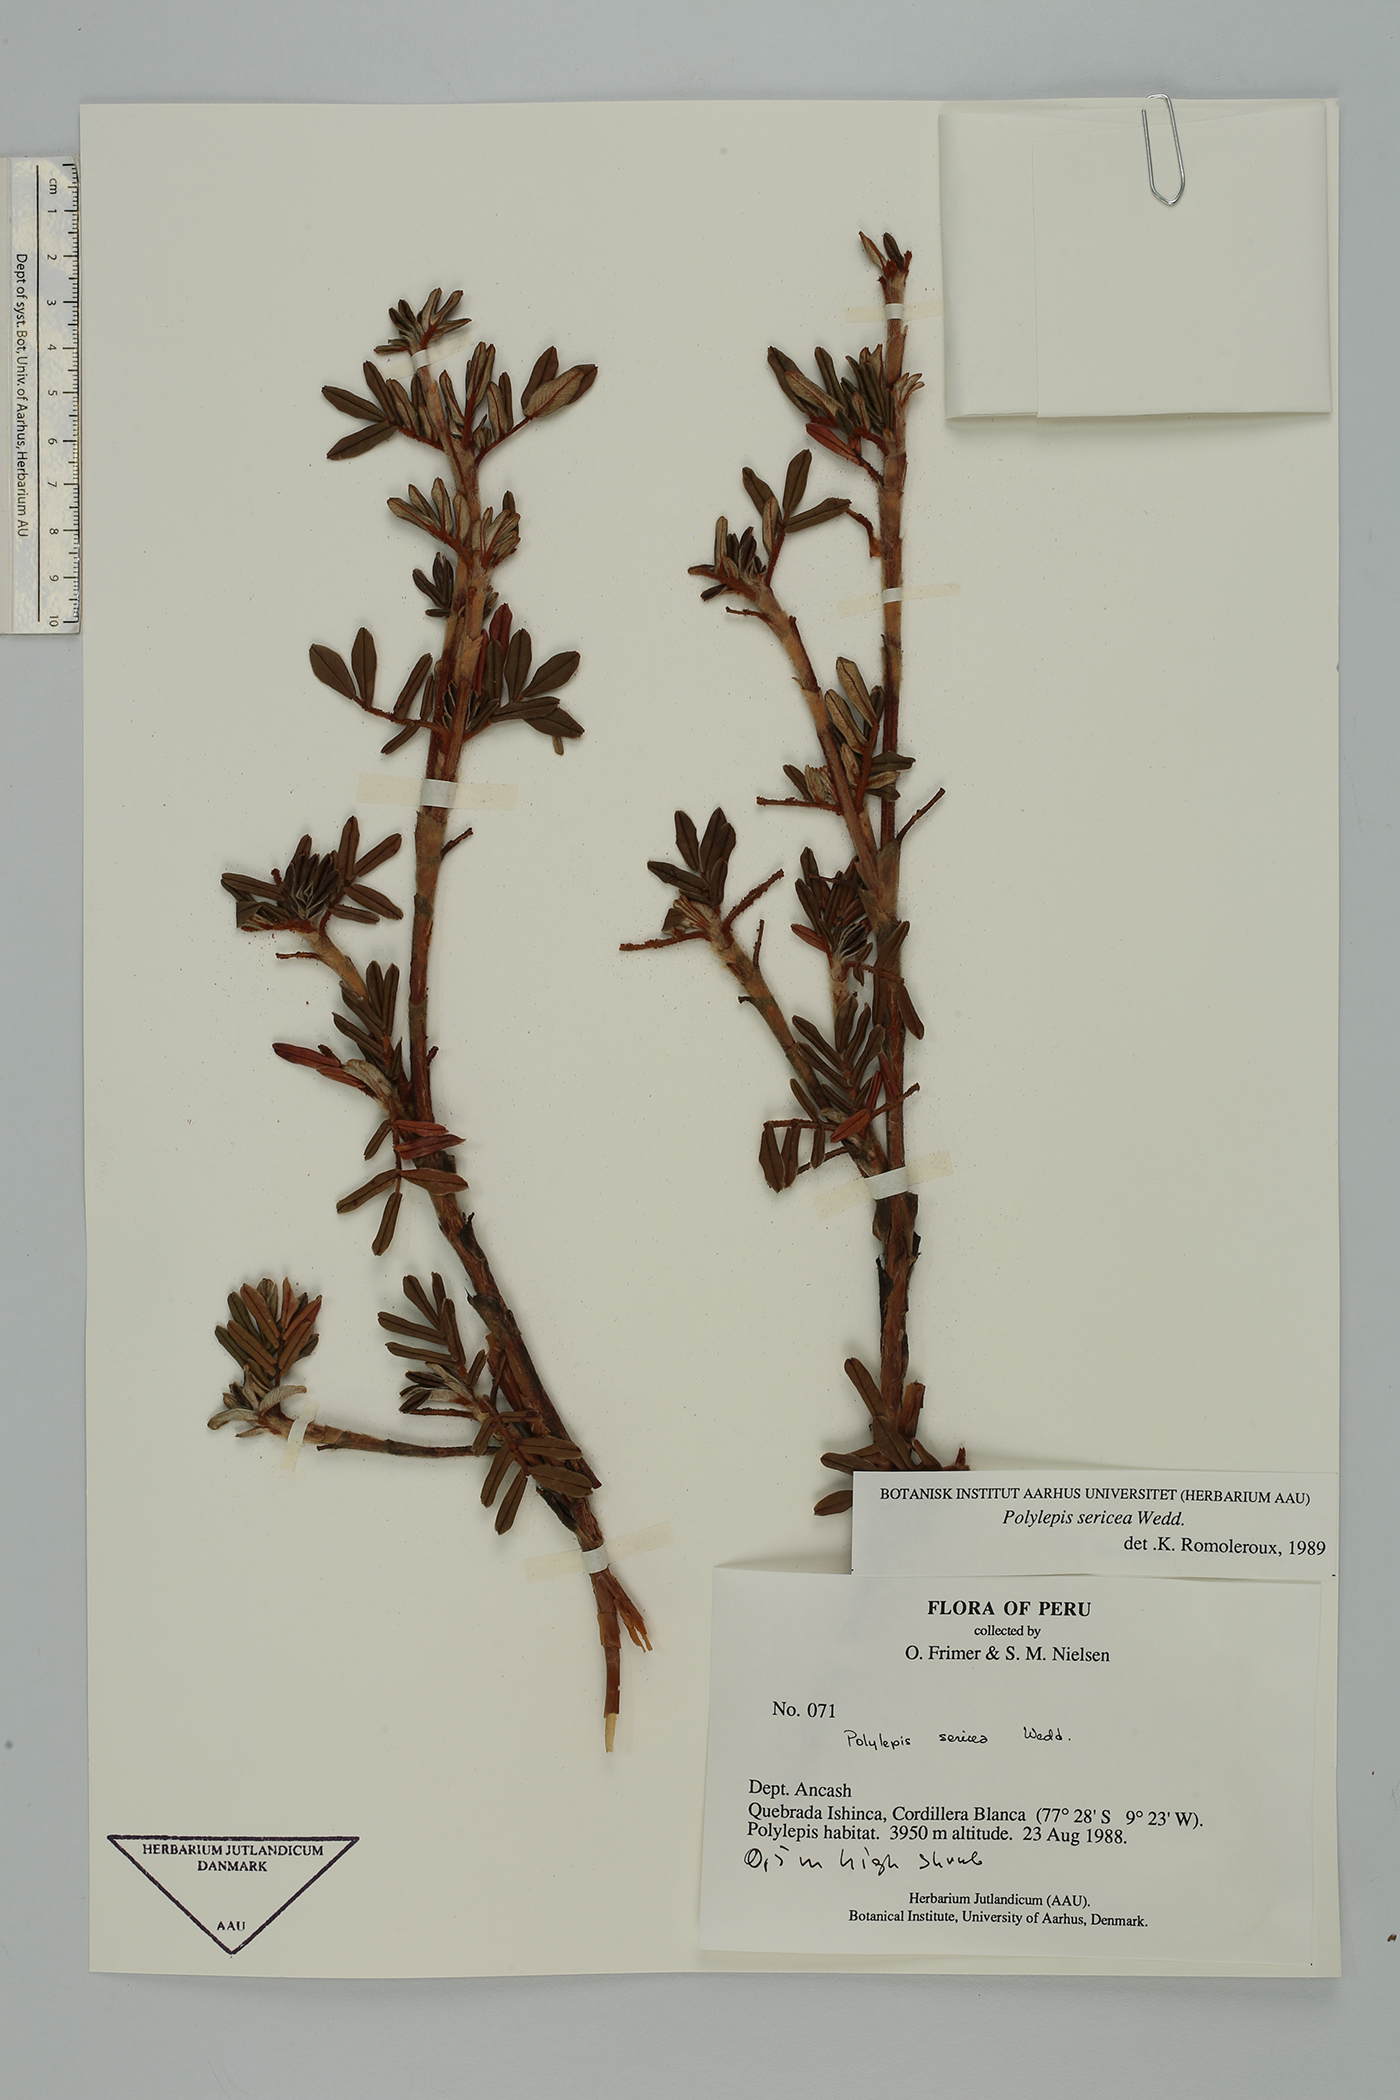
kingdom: Plantae
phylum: Tracheophyta
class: Magnoliopsida
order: Rosales
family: Rosaceae
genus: Polylepis
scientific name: Polylepis sericea
